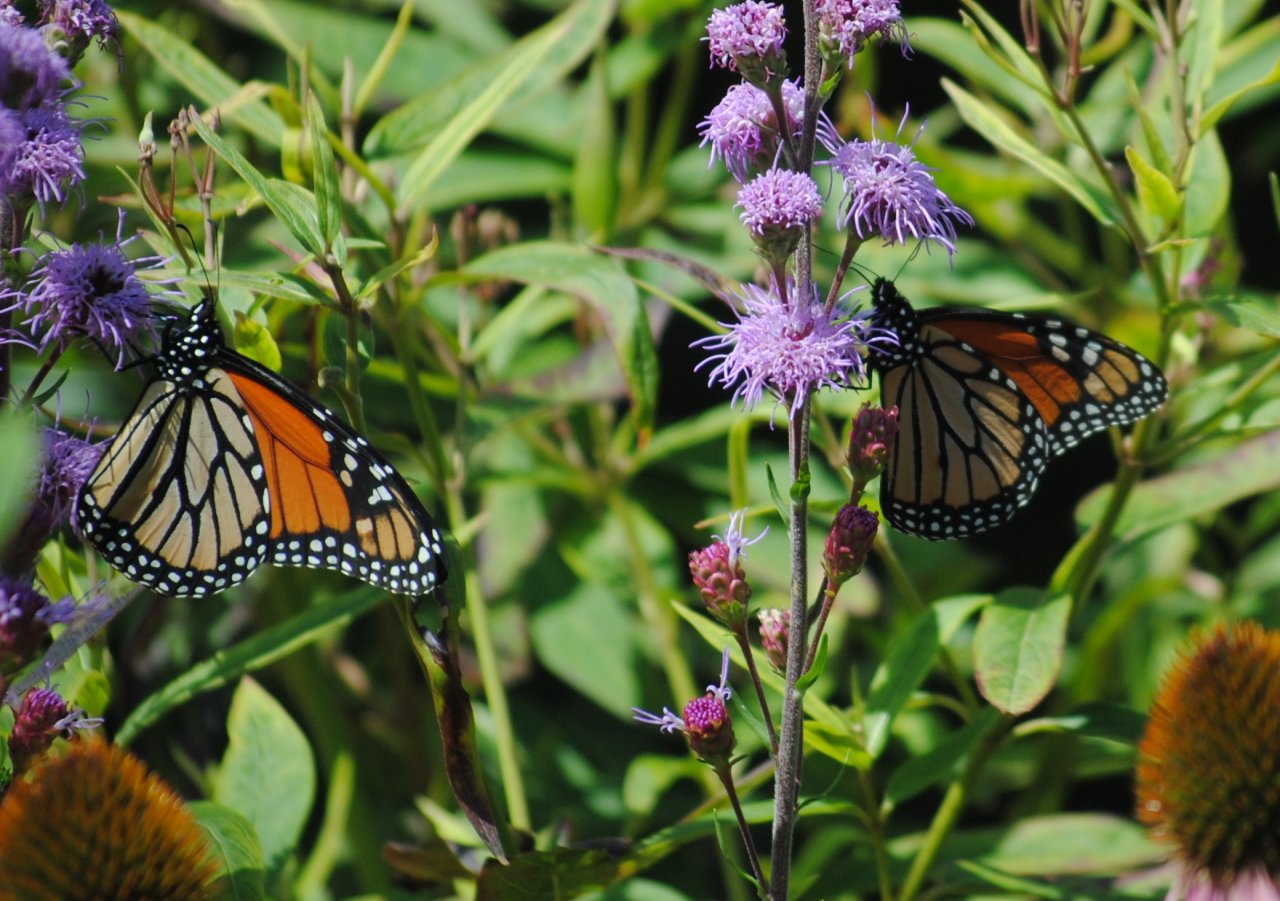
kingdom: Animalia
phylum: Arthropoda
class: Insecta
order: Lepidoptera
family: Nymphalidae
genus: Danaus
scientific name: Danaus plexippus
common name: Monarch
